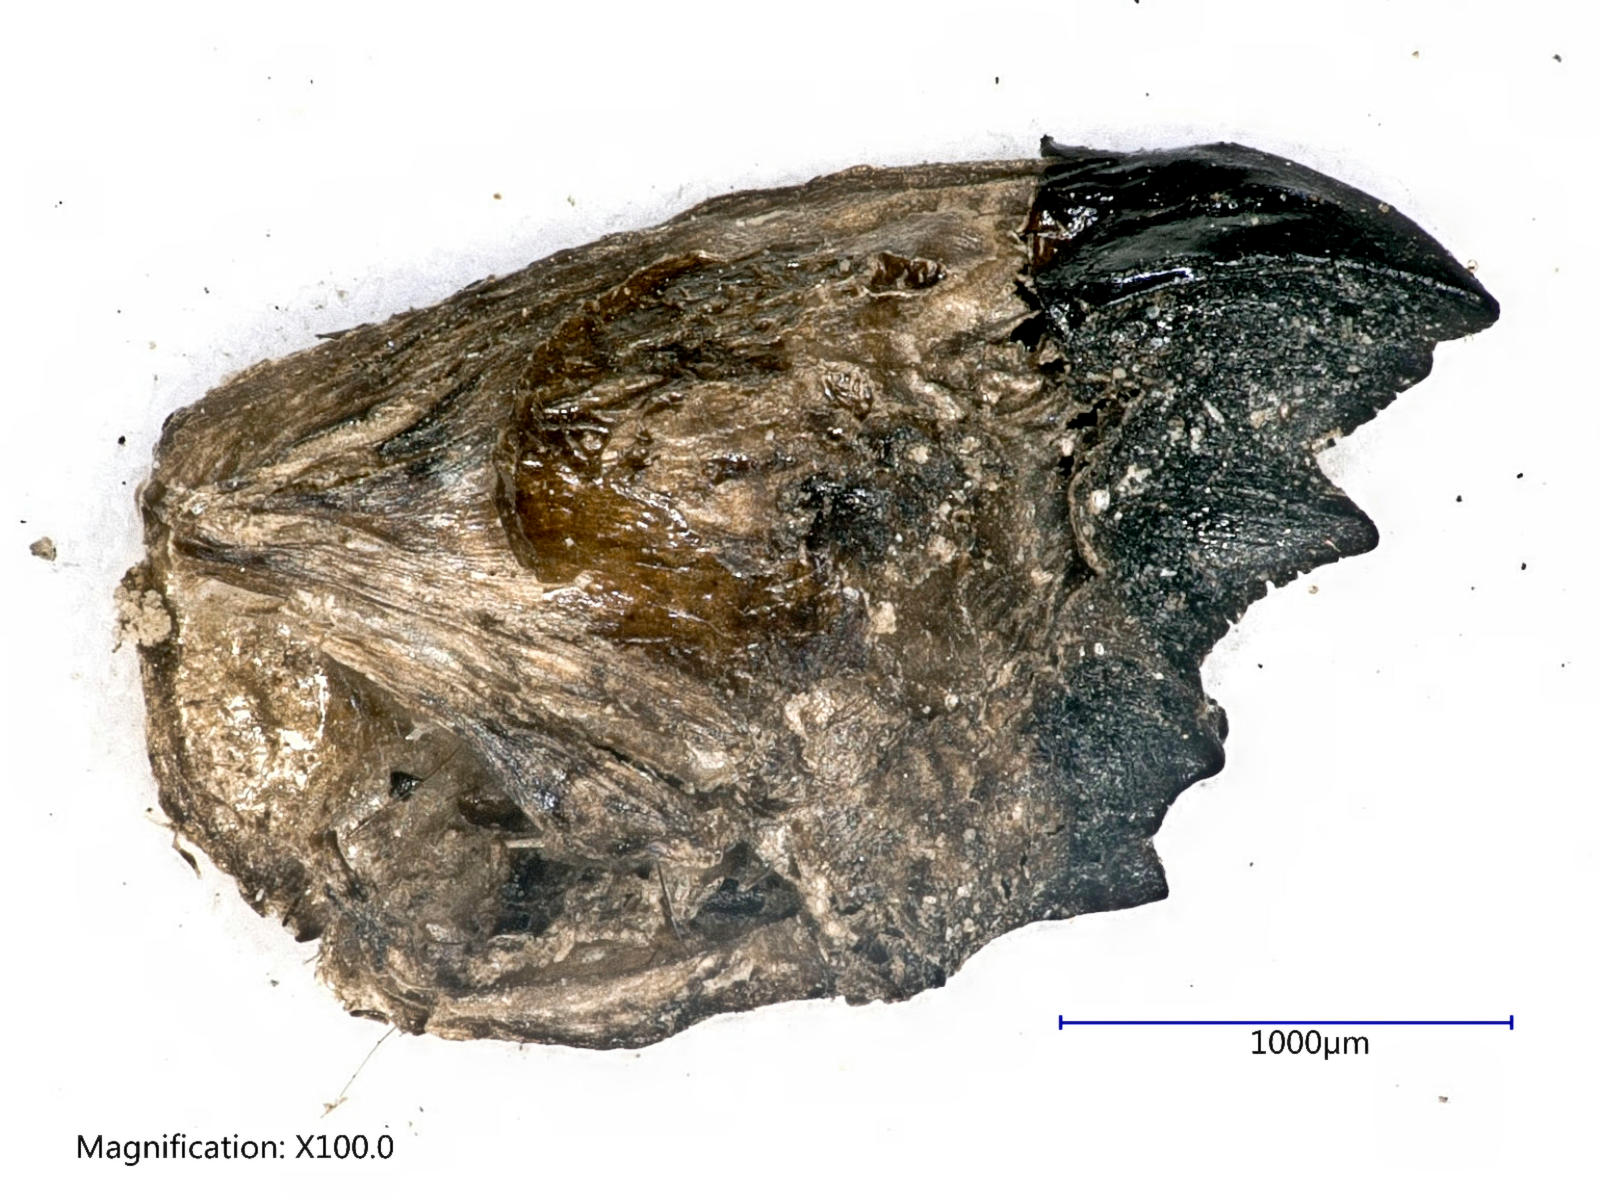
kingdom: Animalia
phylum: Arthropoda
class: Insecta
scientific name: Insecta
